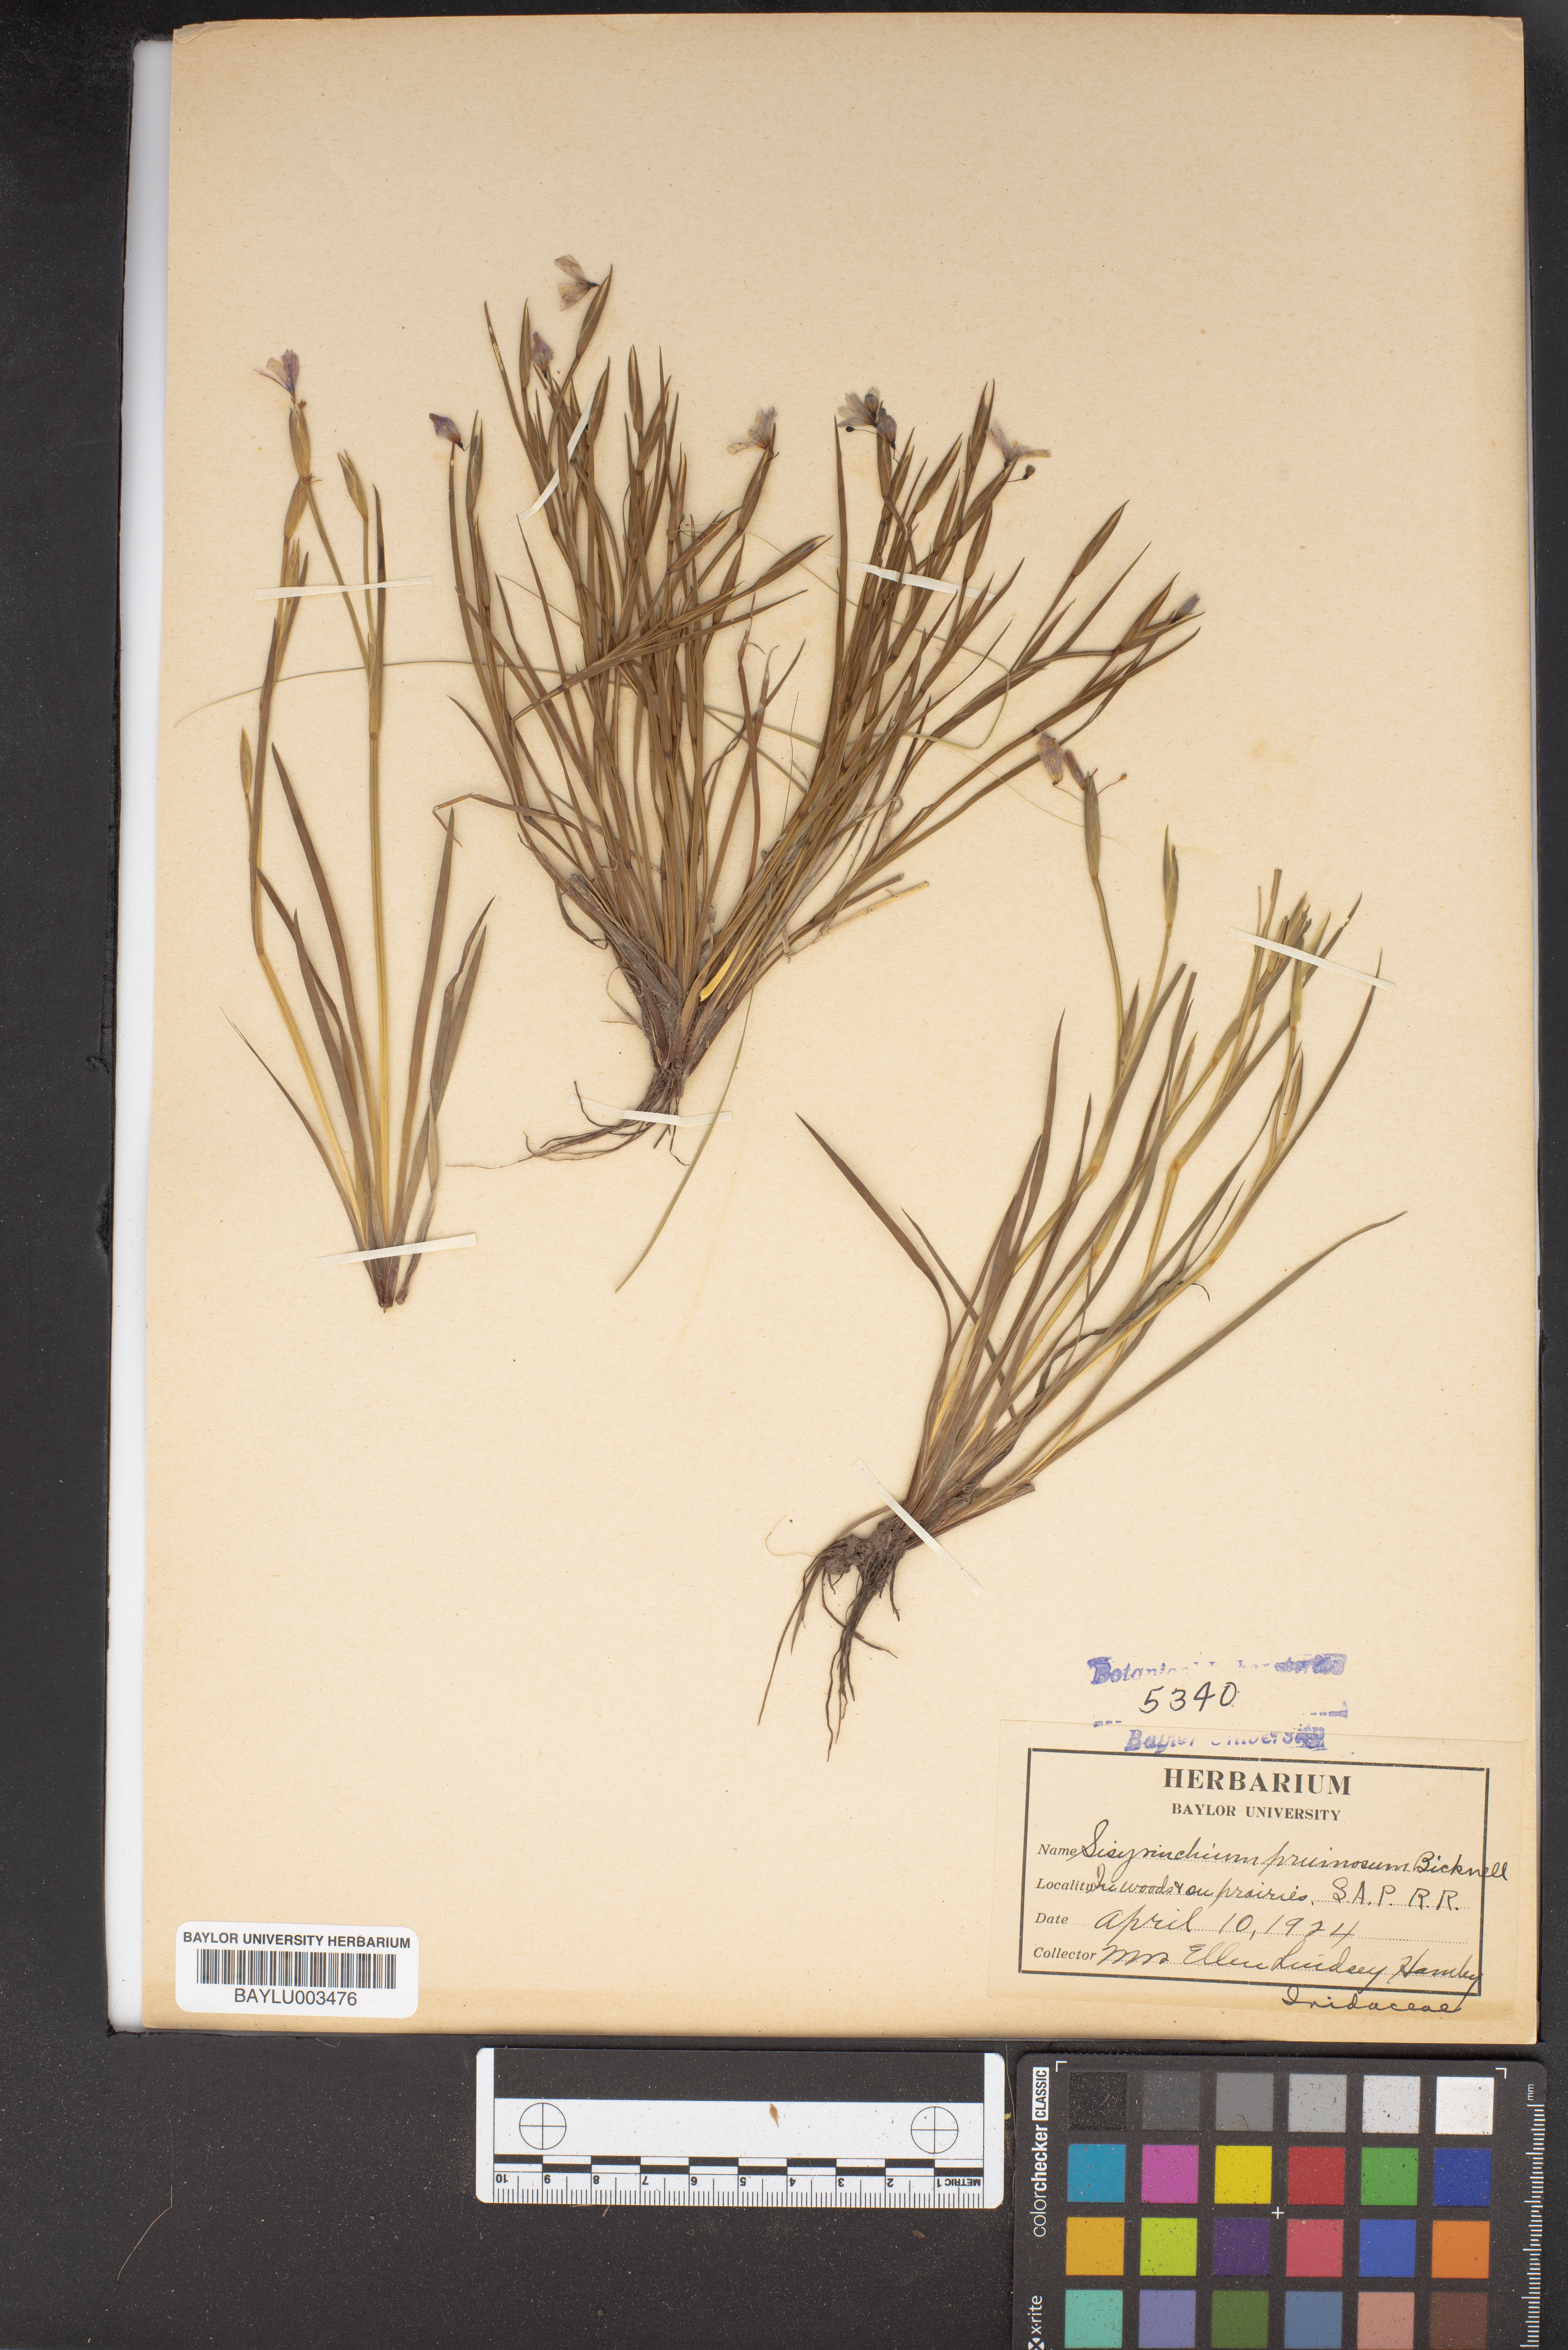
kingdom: Plantae
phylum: Tracheophyta
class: Liliopsida
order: Asparagales
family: Iridaceae
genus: Sisyrinchium
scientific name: Sisyrinchium funereum
